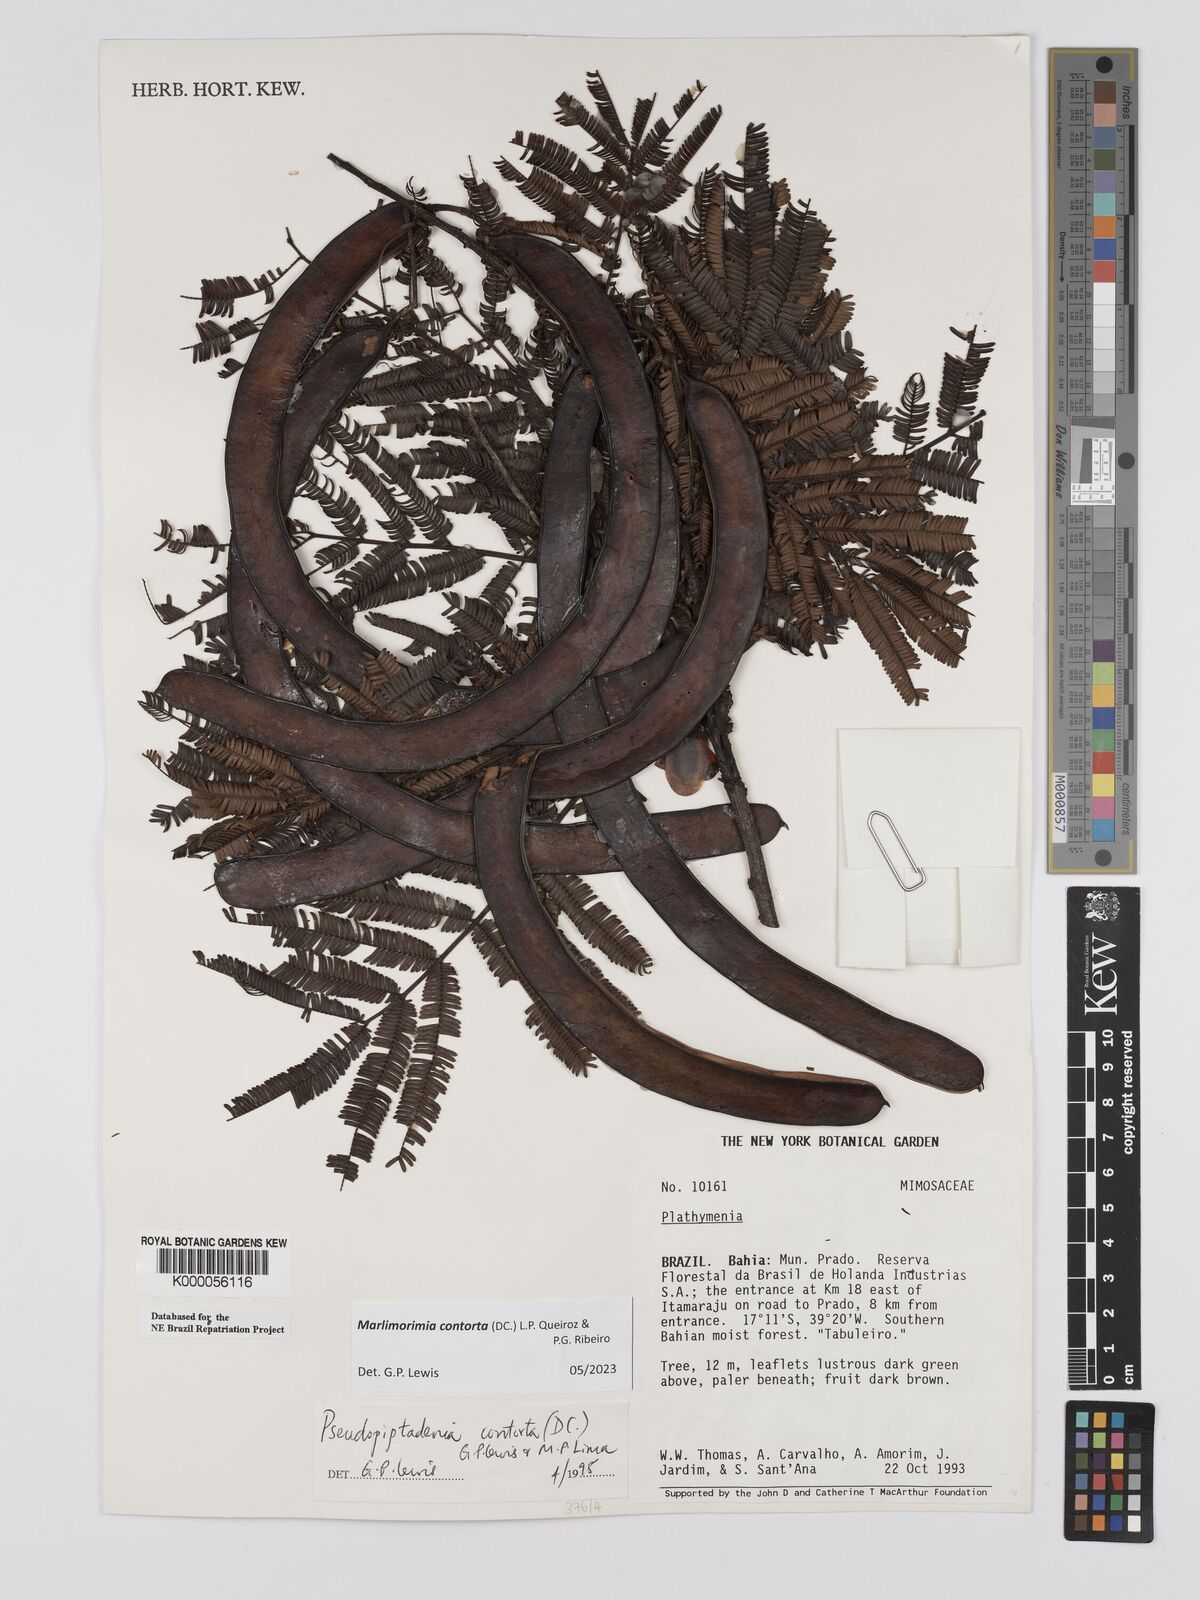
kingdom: Plantae
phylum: Tracheophyta
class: Magnoliopsida
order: Fabales
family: Fabaceae
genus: Pseudopiptadenia
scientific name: Pseudopiptadenia contorta
